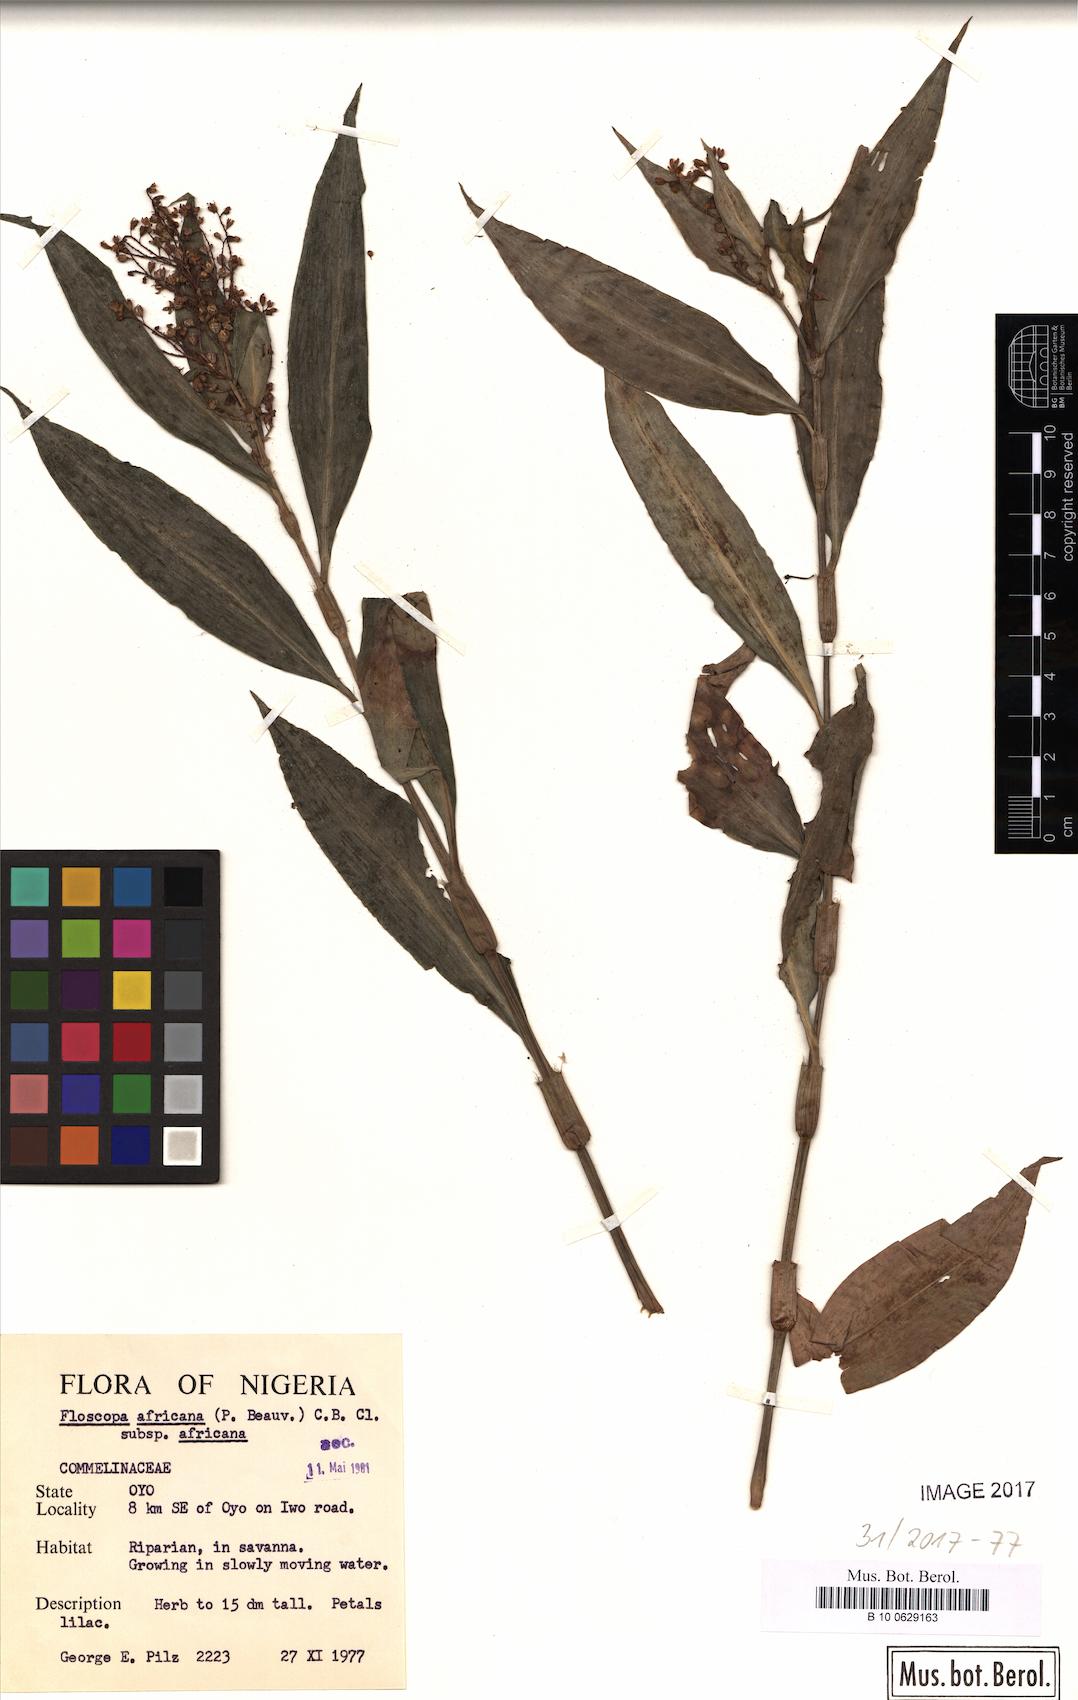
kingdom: Plantae
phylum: Tracheophyta
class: Liliopsida
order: Commelinales
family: Commelinaceae
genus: Floscopa
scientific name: Floscopa africana
